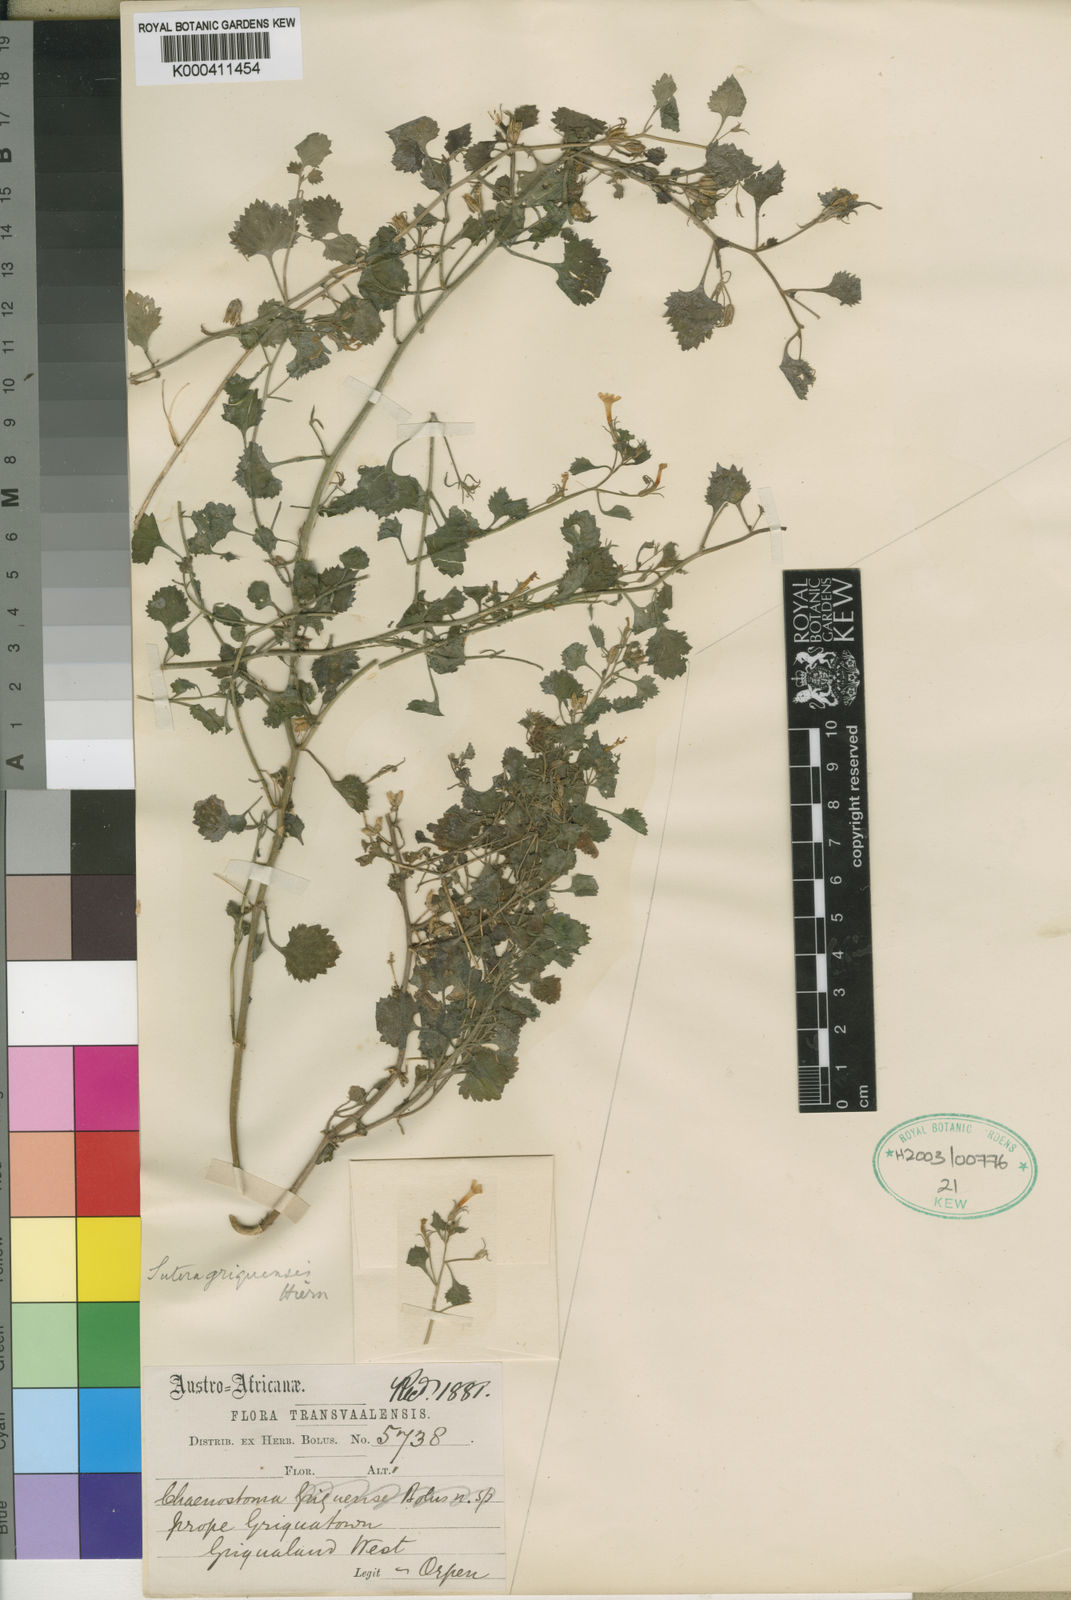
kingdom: Plantae
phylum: Tracheophyta
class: Magnoliopsida
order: Lamiales
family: Scrophulariaceae
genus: Sutera
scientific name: Sutera griquensis
